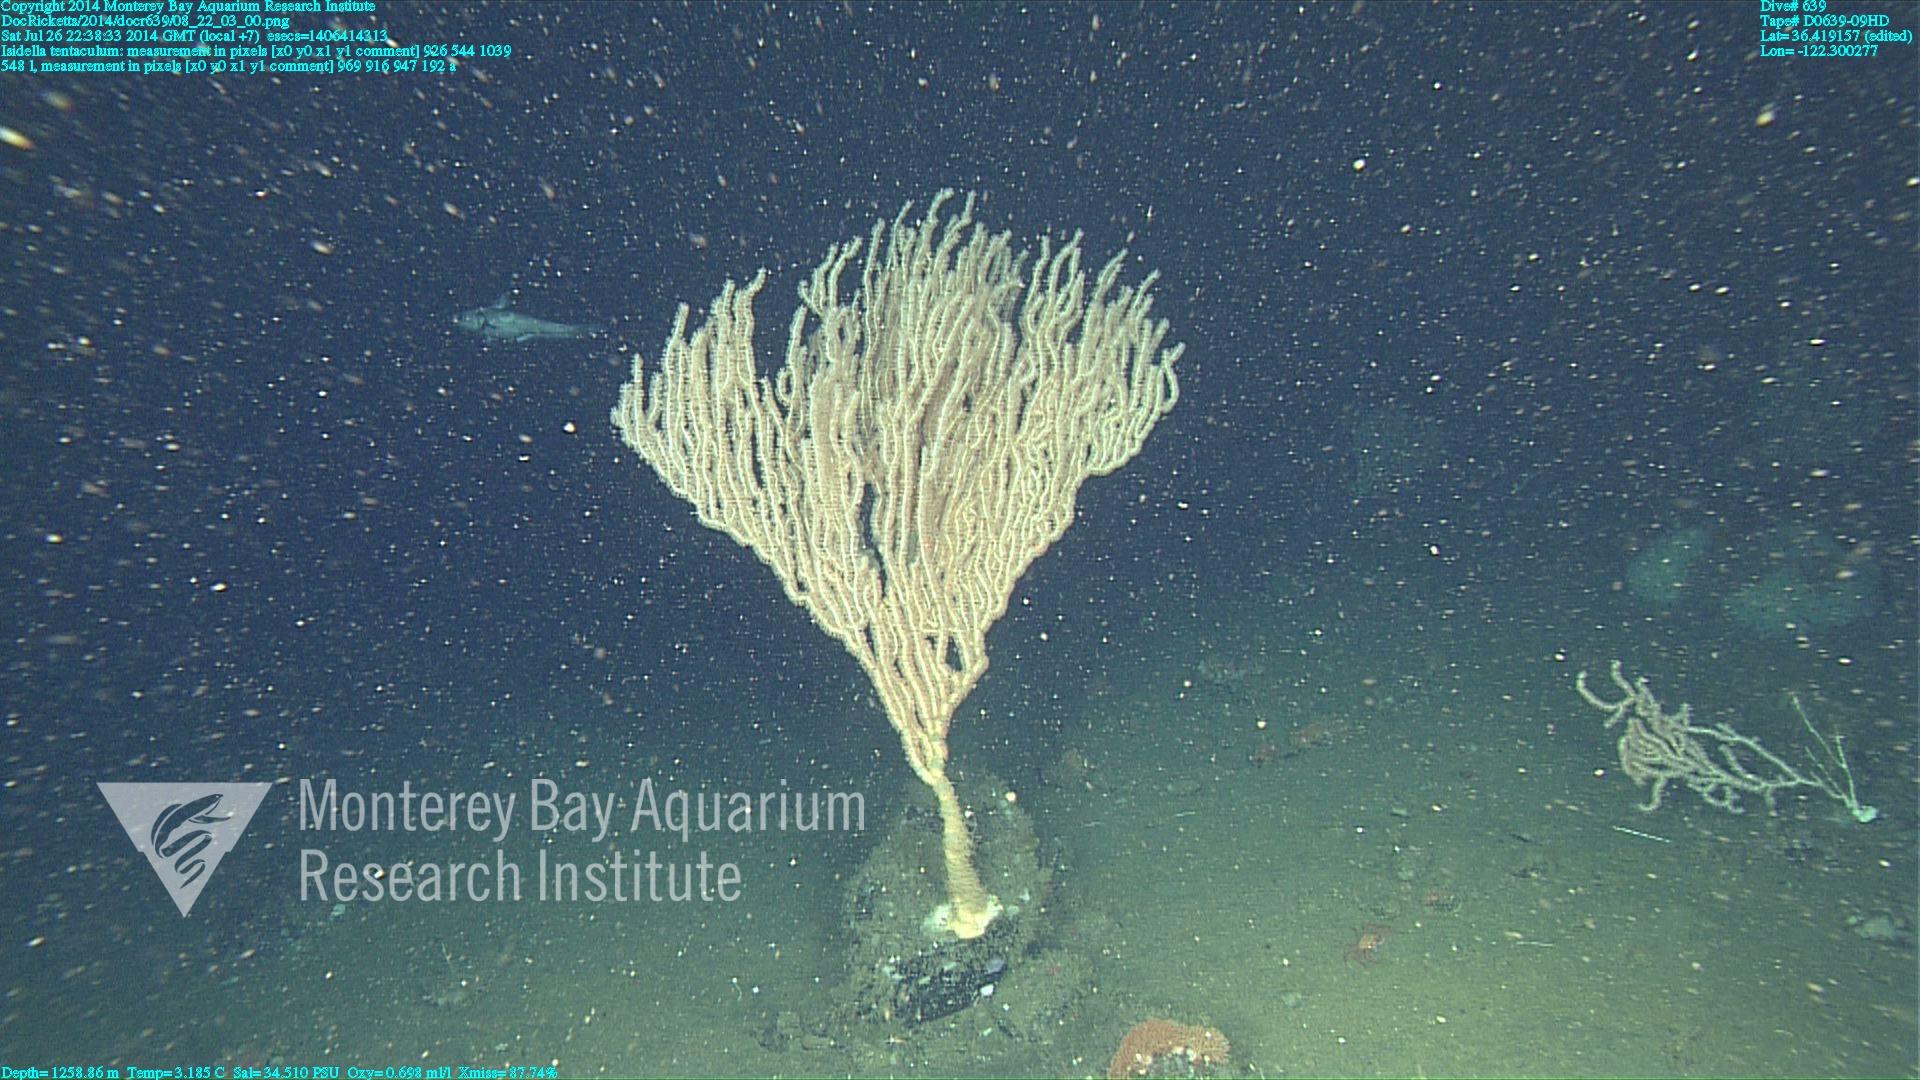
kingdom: Animalia
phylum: Cnidaria
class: Anthozoa
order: Scleralcyonacea
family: Keratoisididae
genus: Isidella
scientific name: Isidella tentaculum
